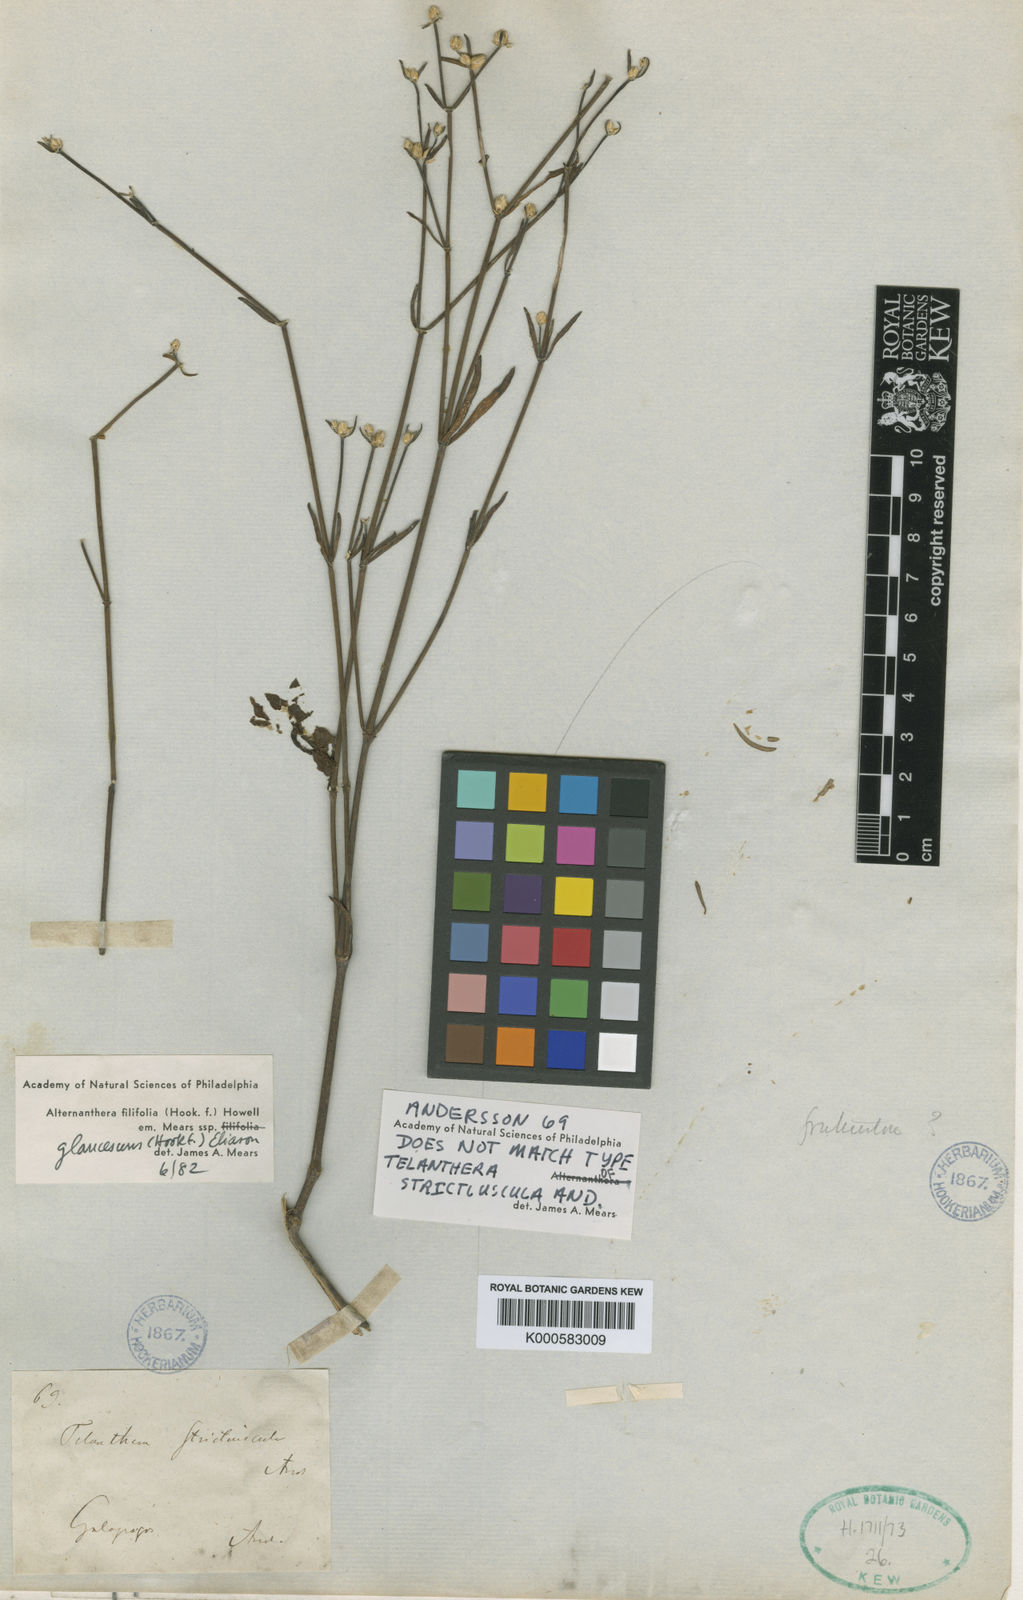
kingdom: Plantae
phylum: Tracheophyta
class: Magnoliopsida
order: Caryophyllales
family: Amaranthaceae
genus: Alternanthera
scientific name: Alternanthera filifolia
